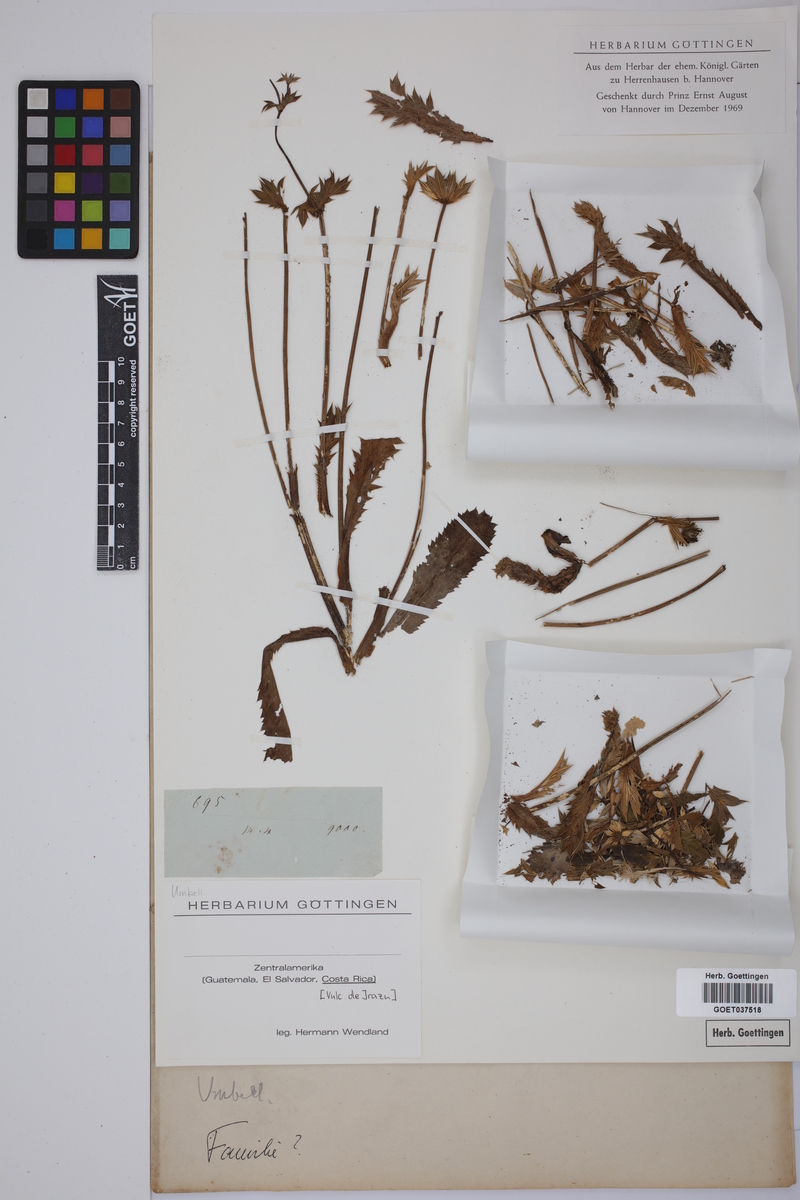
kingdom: Plantae
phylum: Tracheophyta
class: Magnoliopsida
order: Apiales
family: Apiaceae
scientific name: Apiaceae
